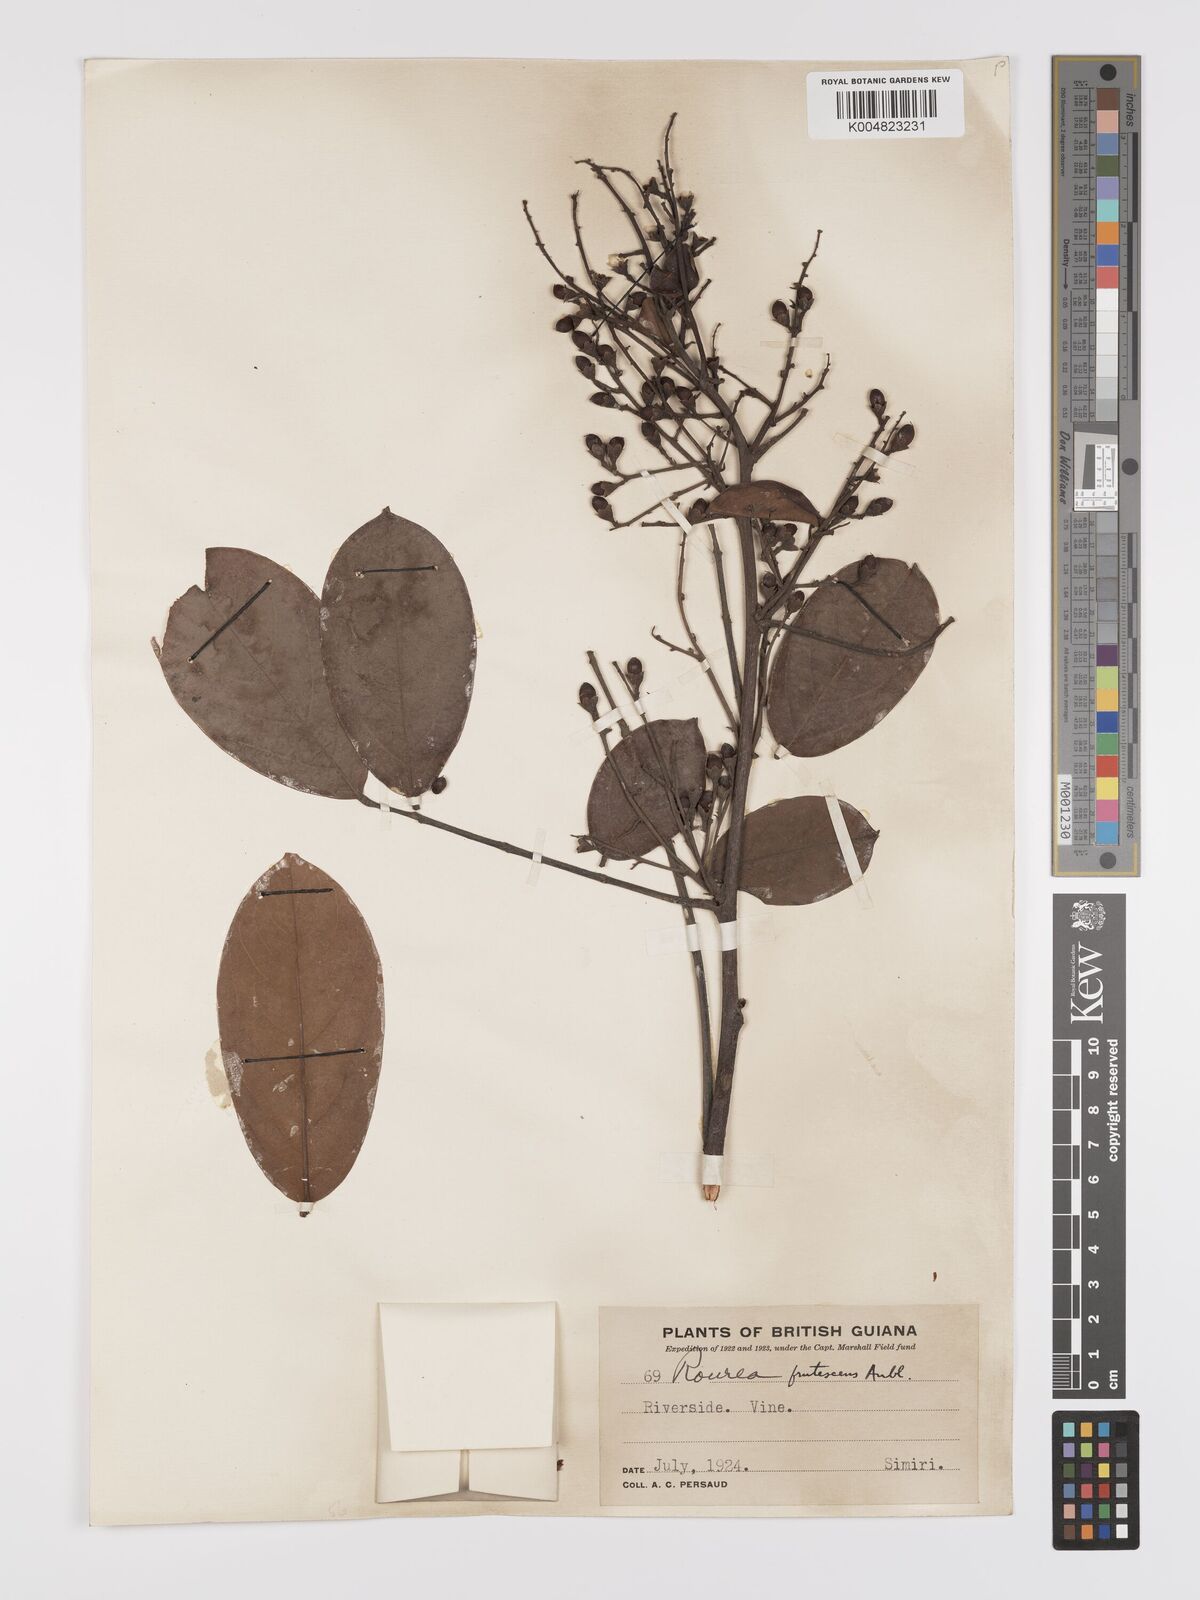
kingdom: Plantae
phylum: Tracheophyta
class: Magnoliopsida
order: Oxalidales
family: Connaraceae
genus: Rourea
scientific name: Rourea frutescens
